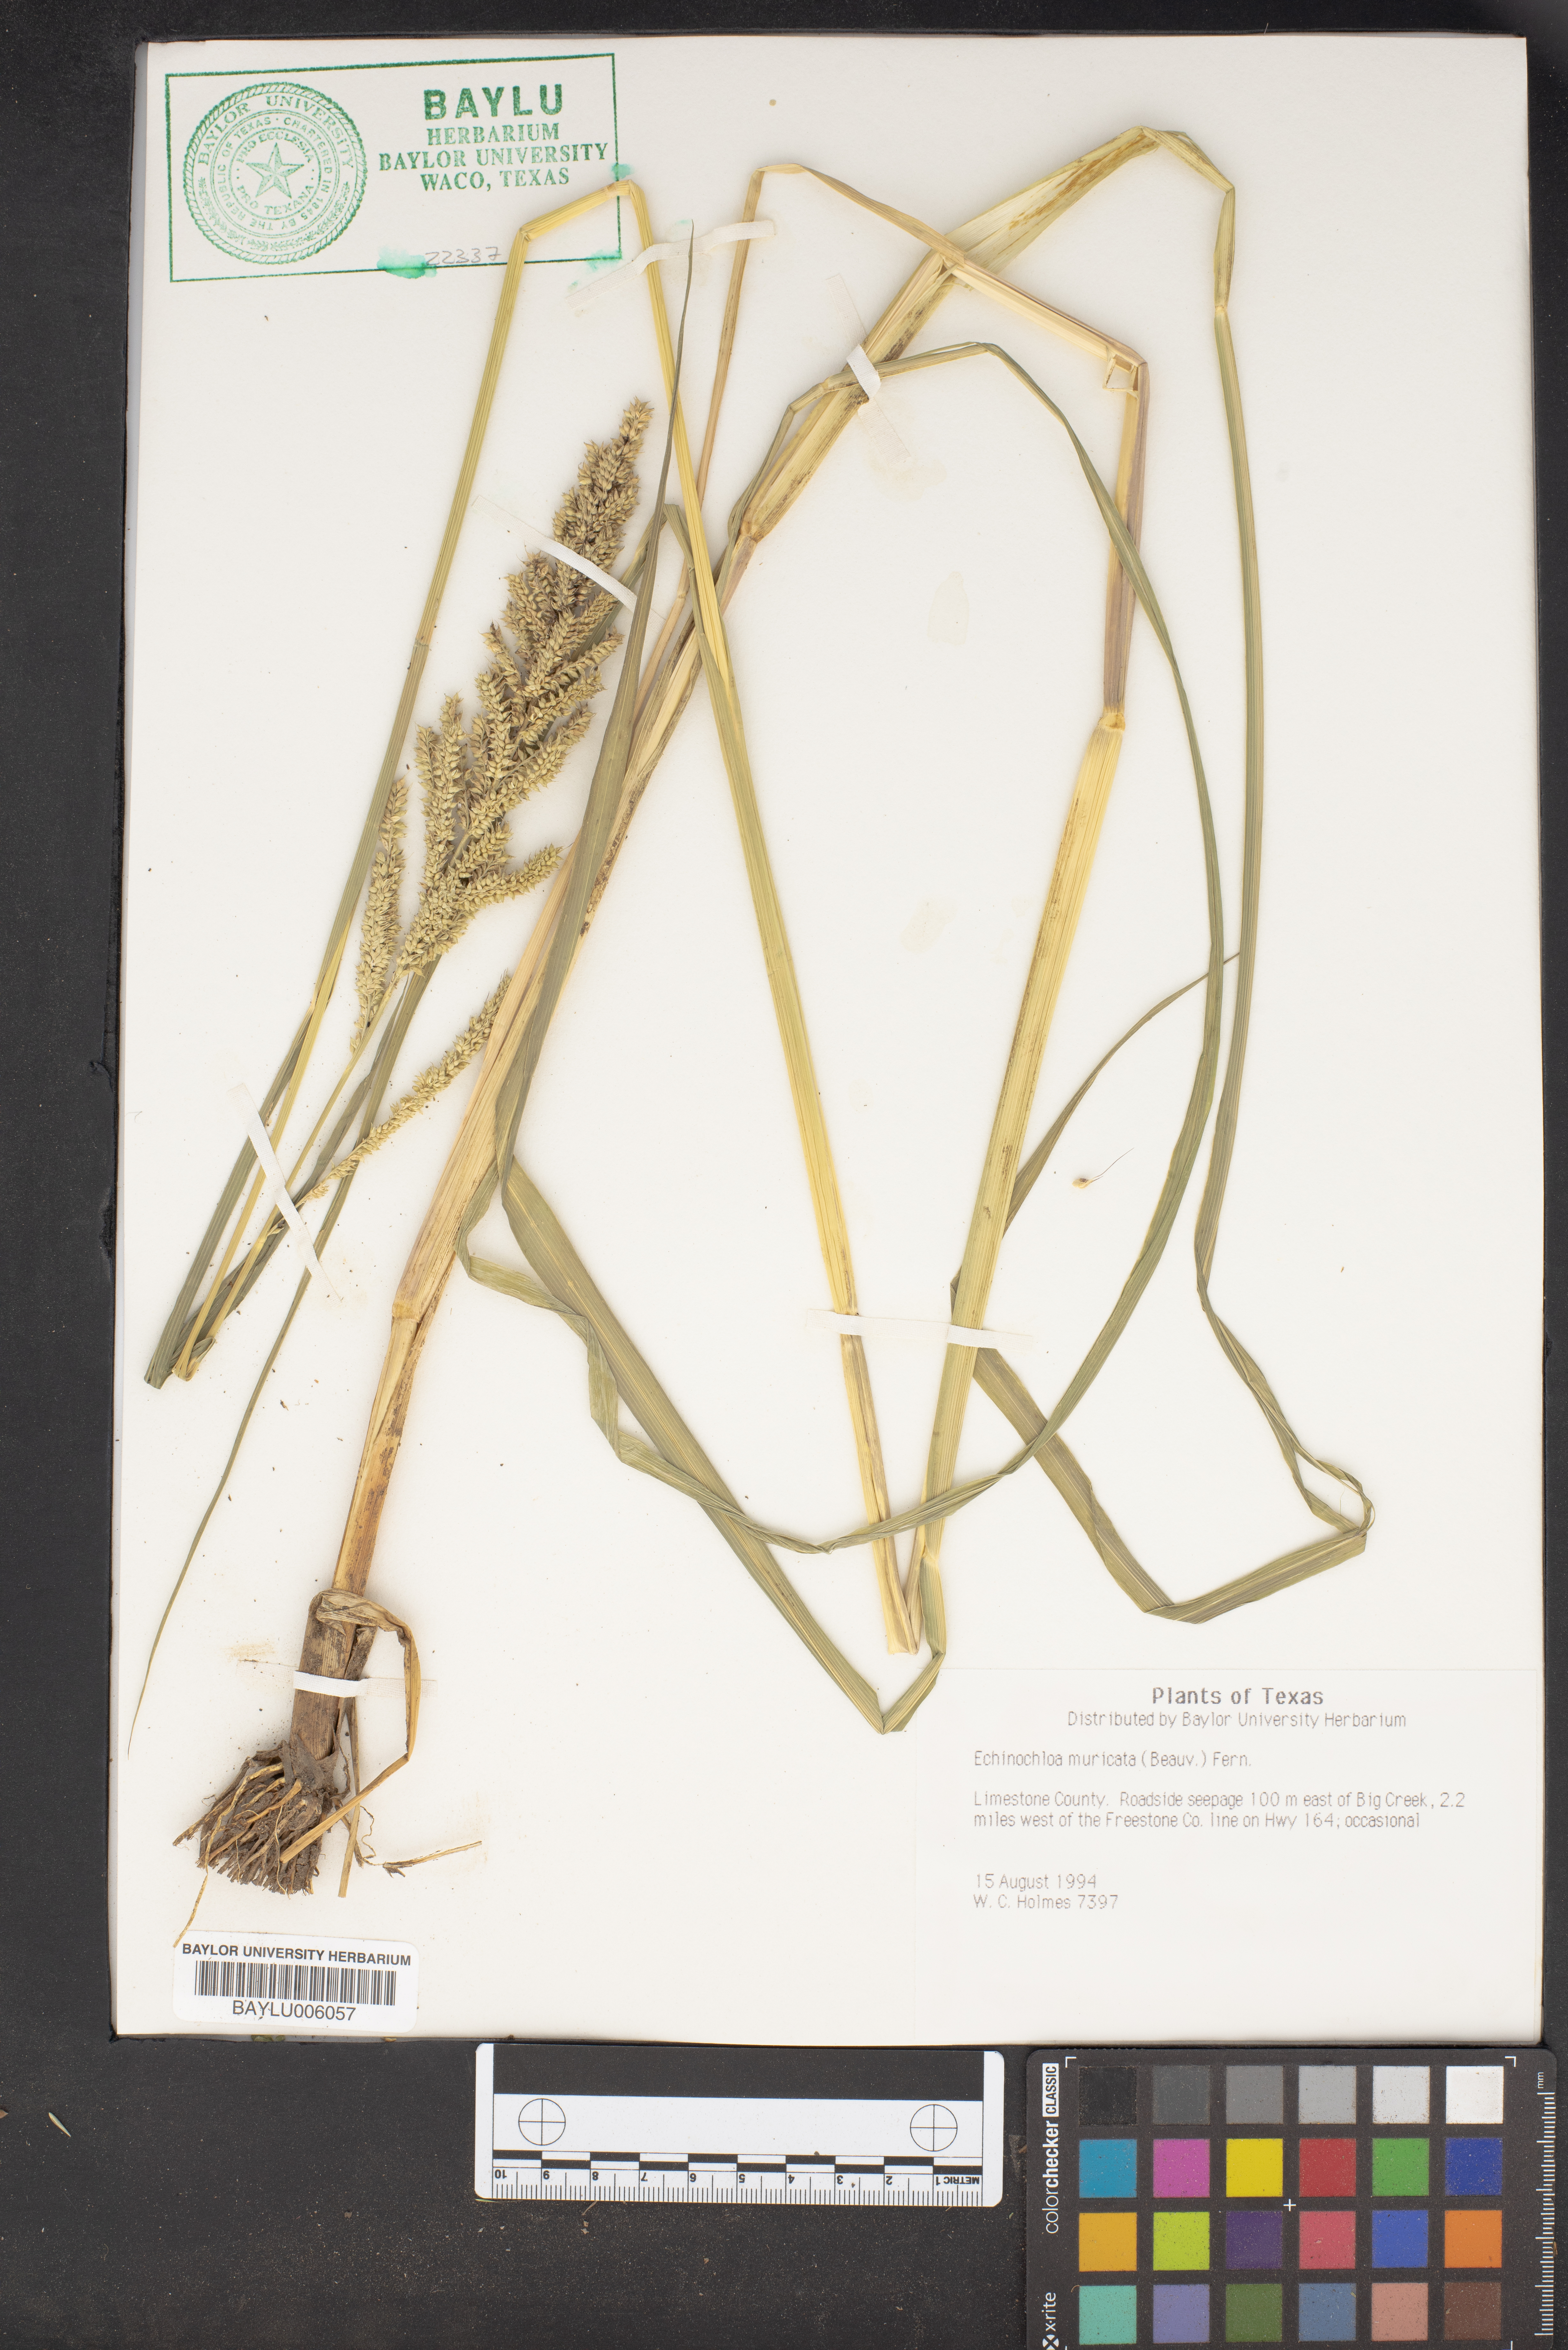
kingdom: Plantae
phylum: Tracheophyta
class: Liliopsida
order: Poales
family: Poaceae
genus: Echinochloa
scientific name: Echinochloa muricata
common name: American barnyard grass
